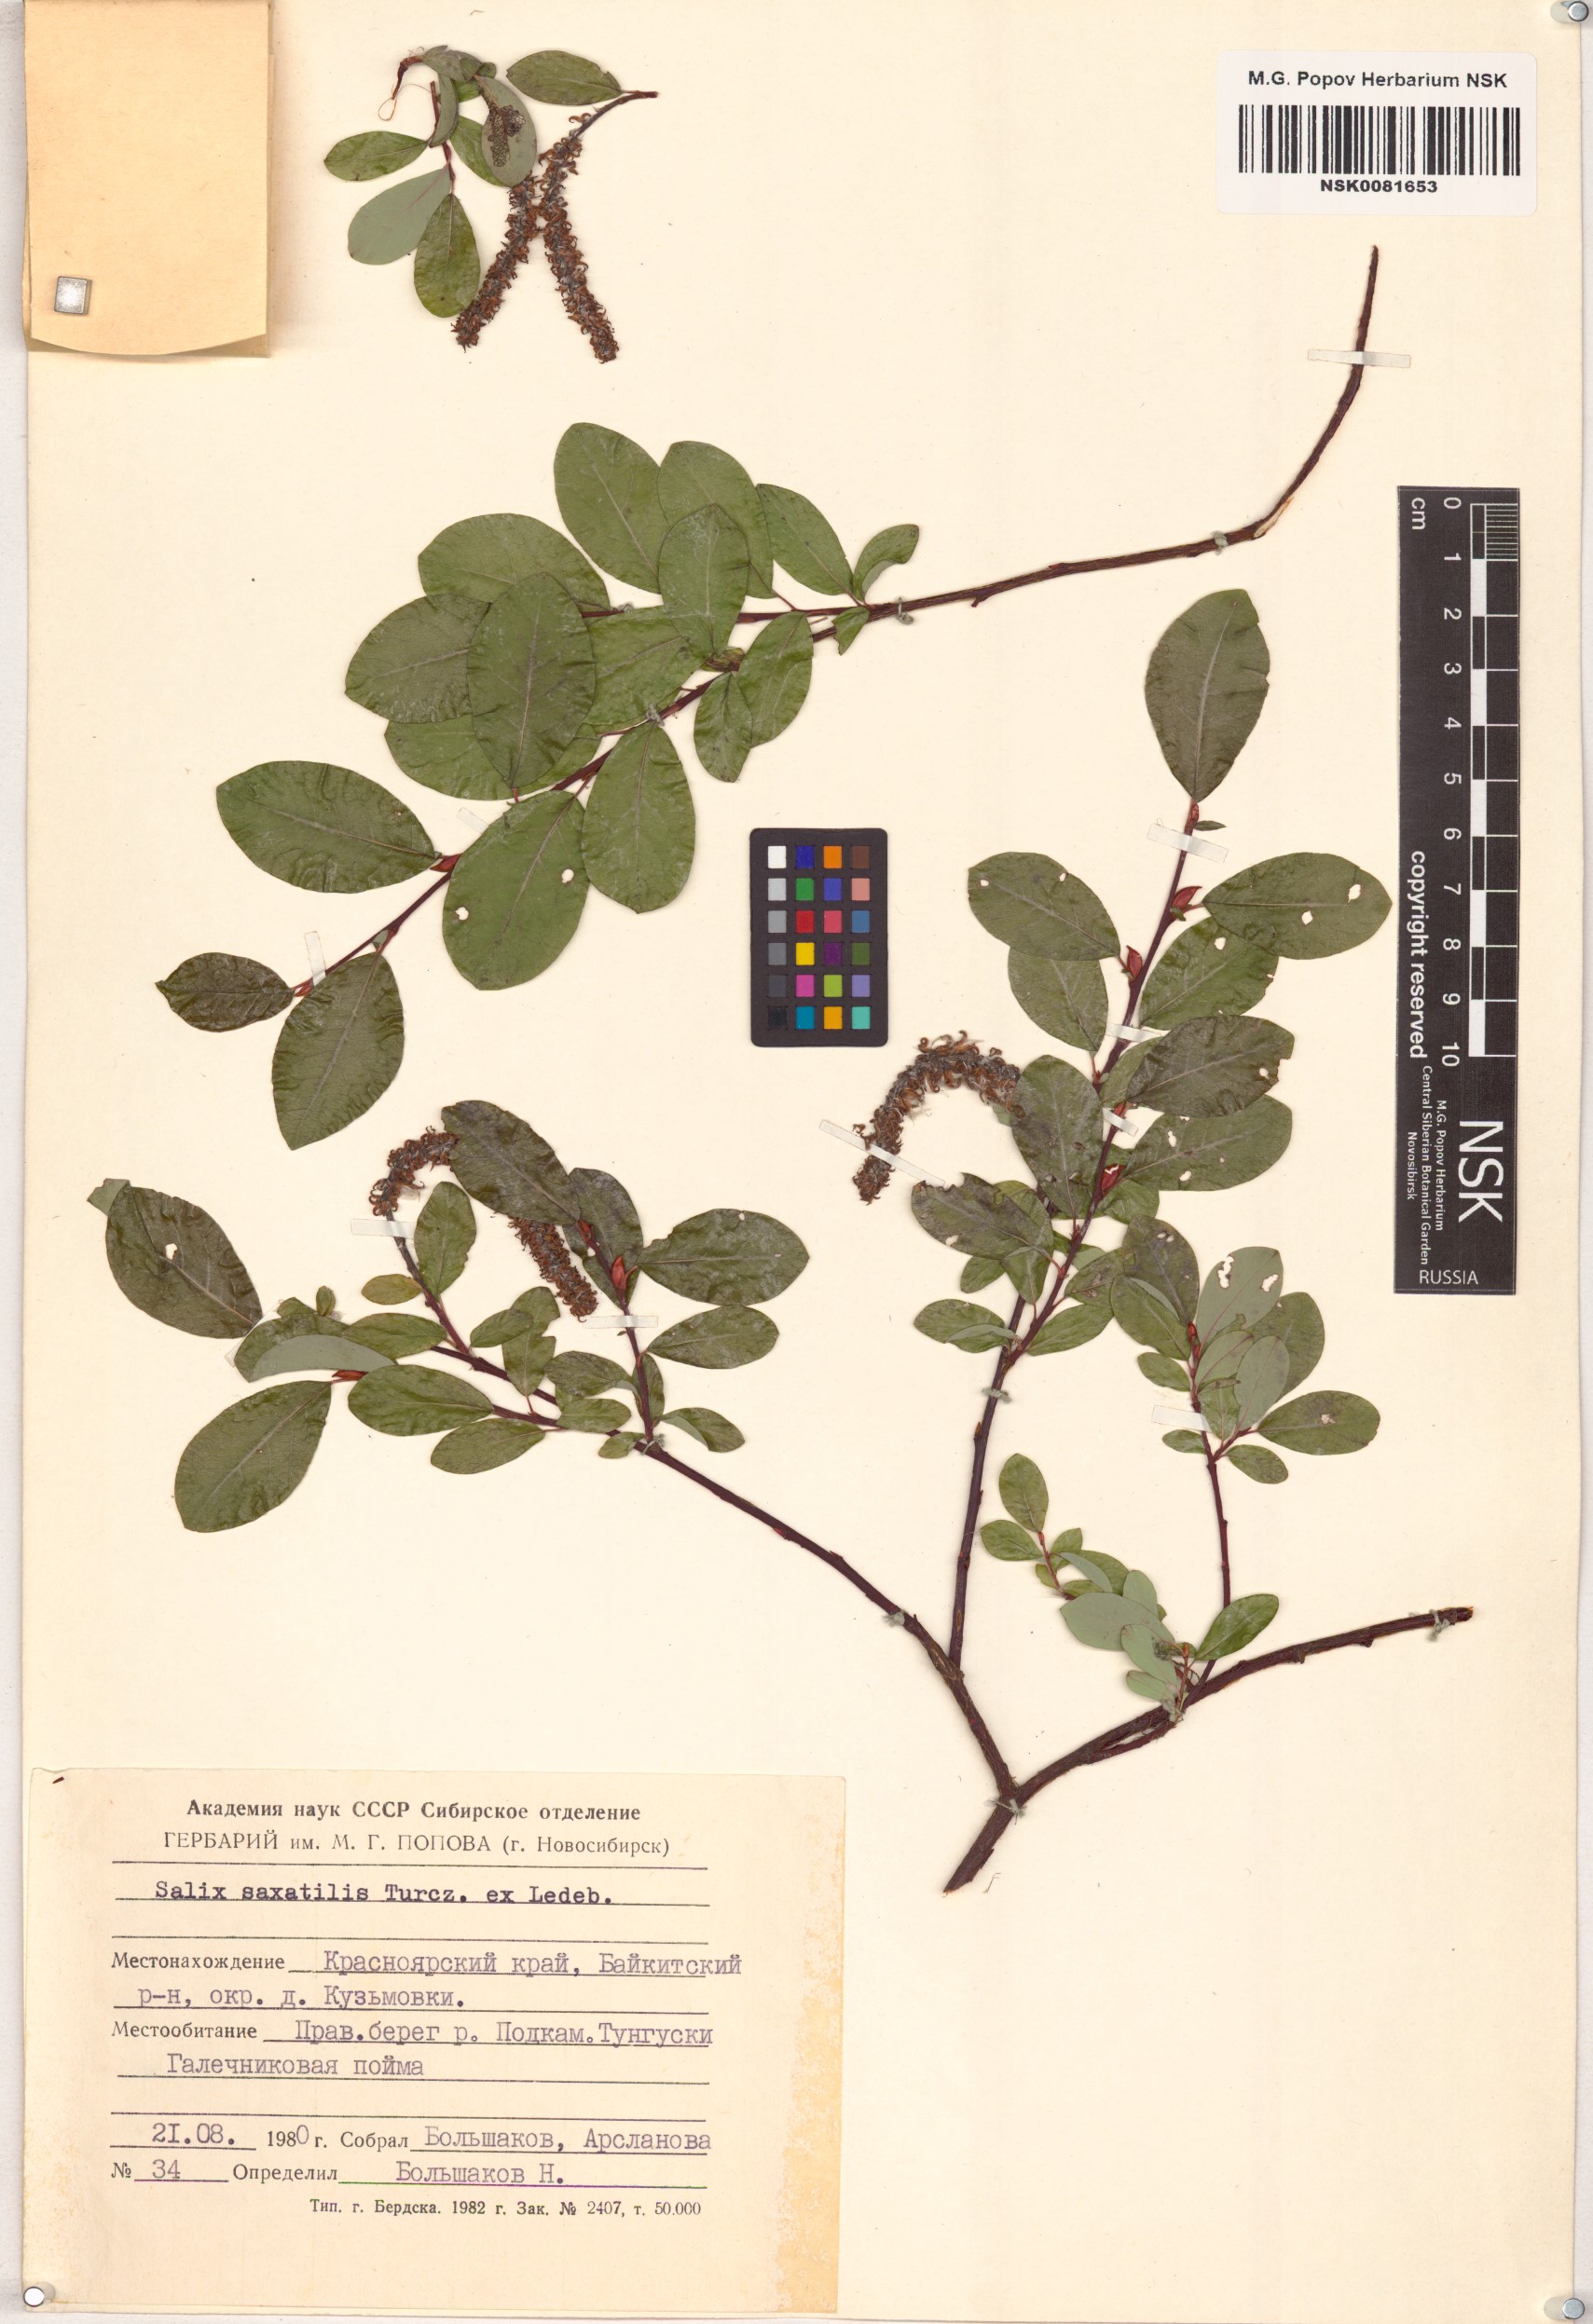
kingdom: Plantae
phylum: Tracheophyta
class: Magnoliopsida
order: Malpighiales
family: Salicaceae
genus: Salix
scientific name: Salix saxatilis
